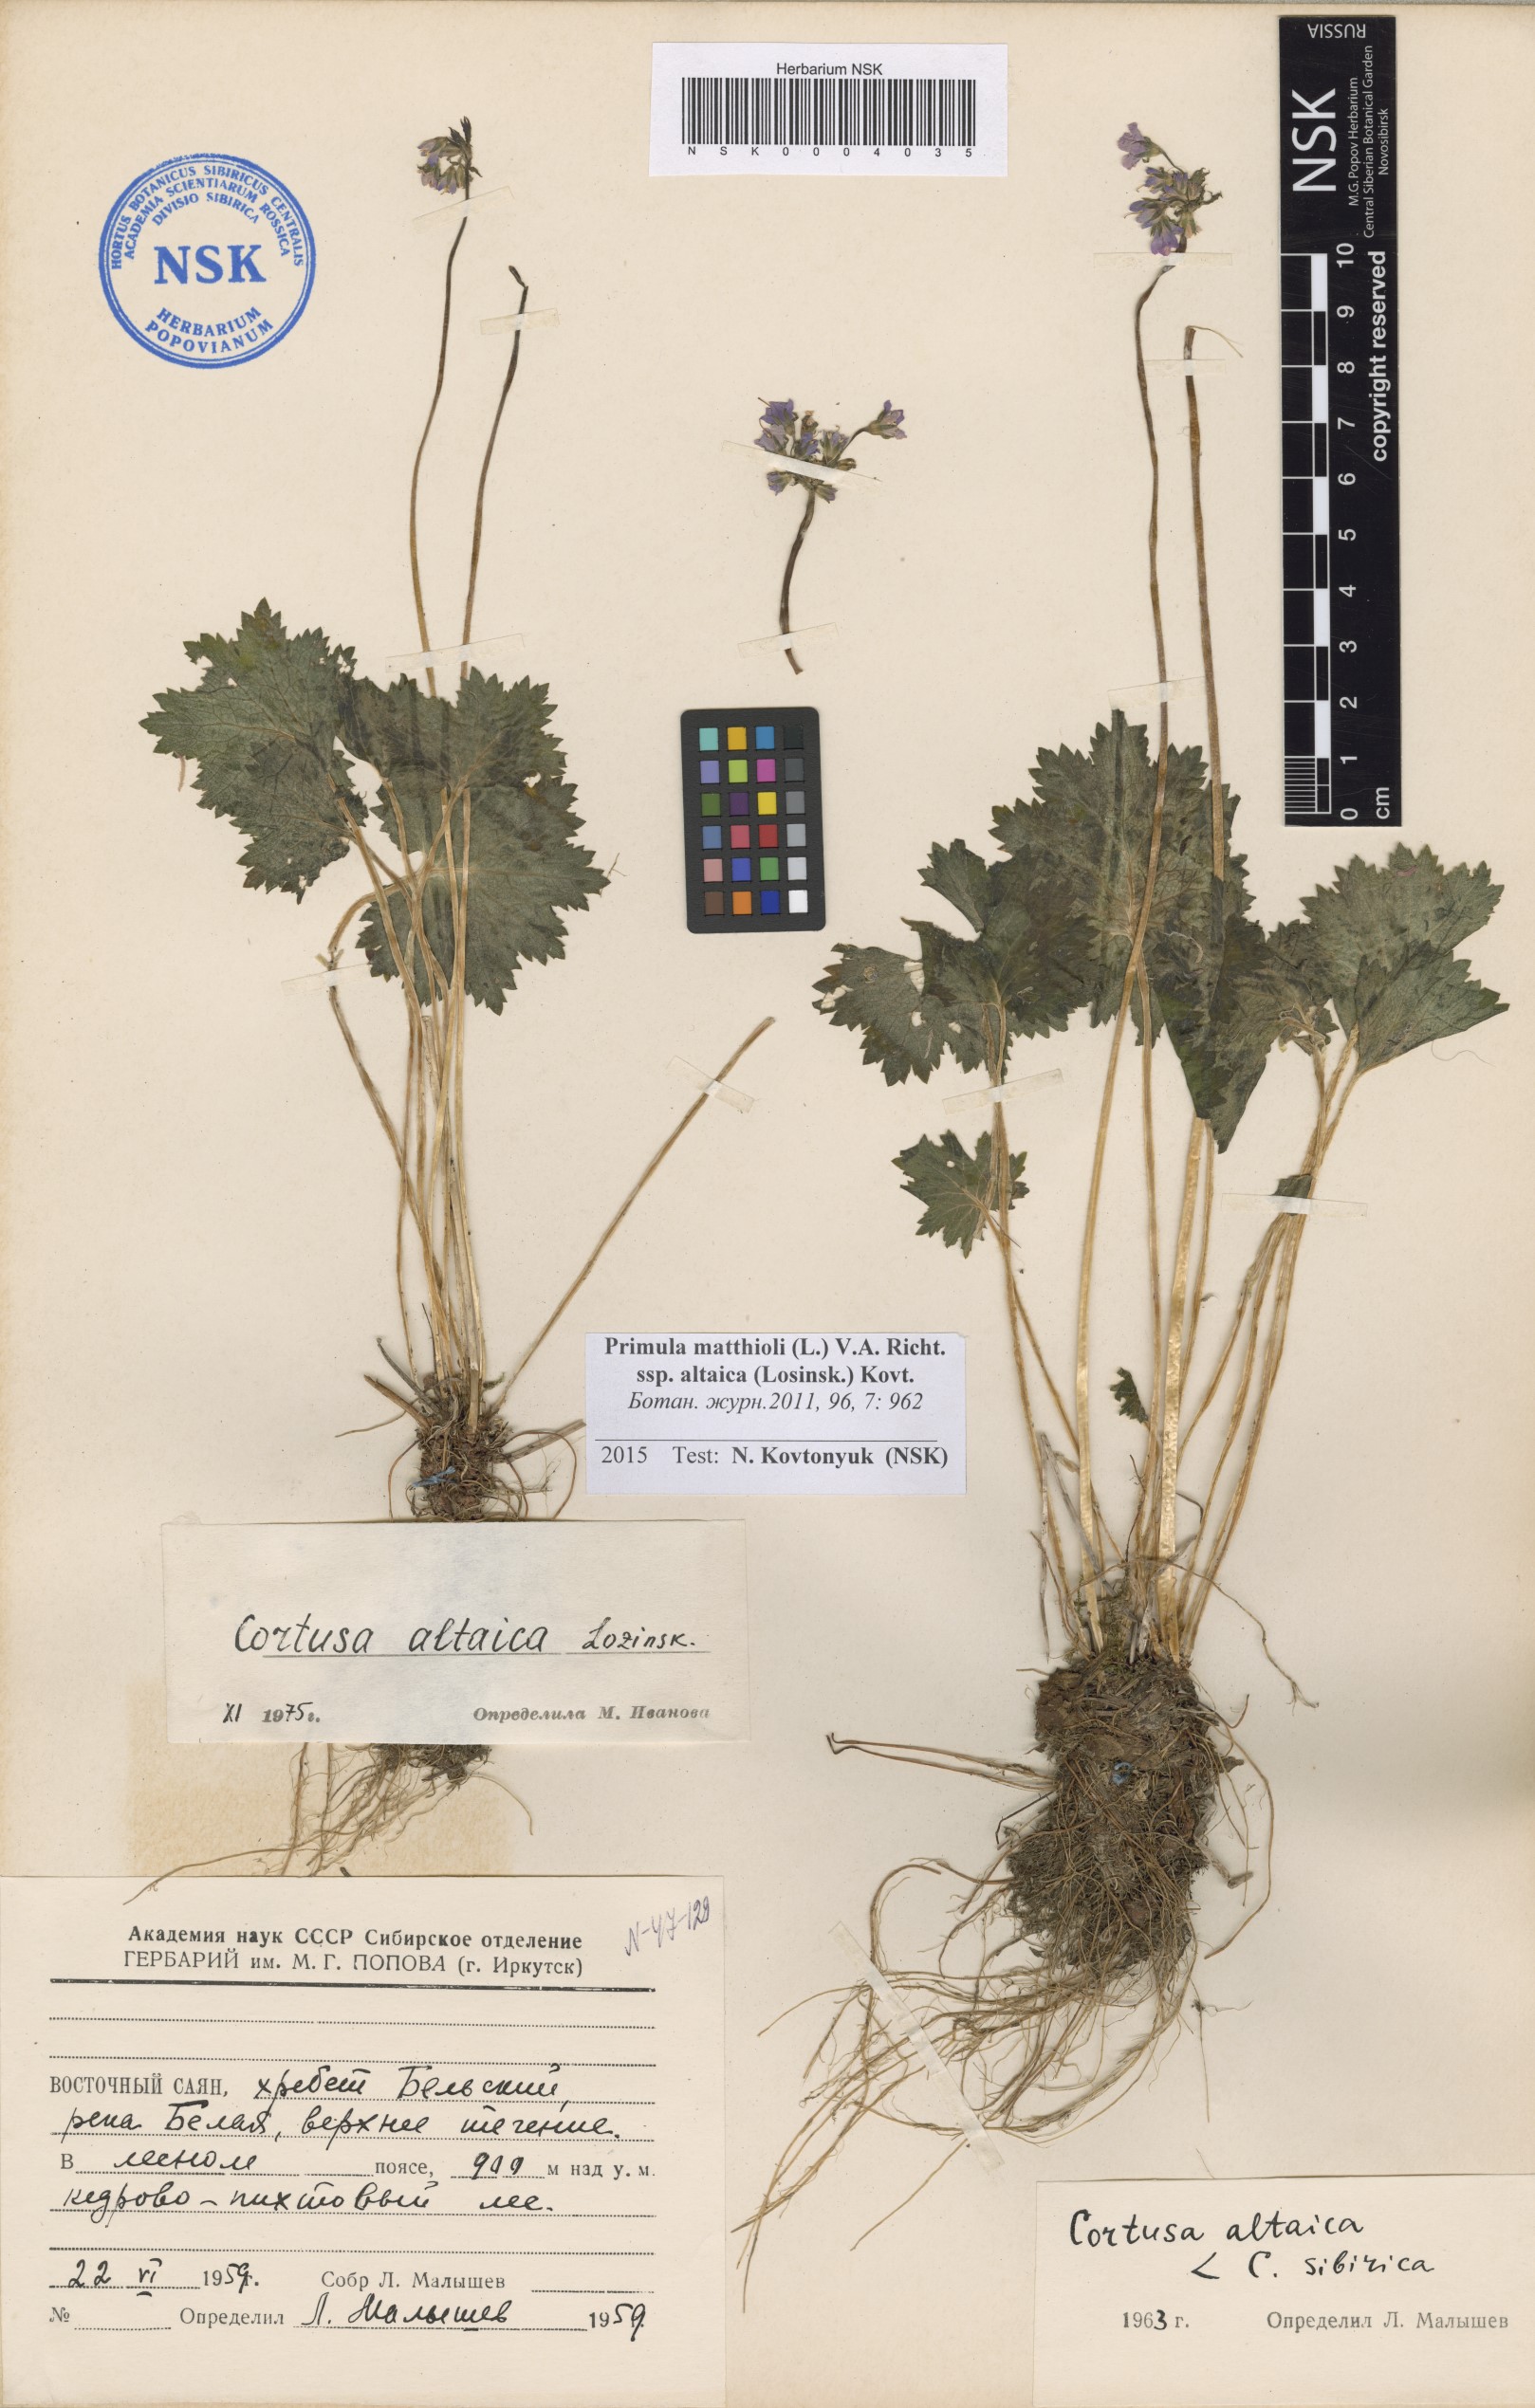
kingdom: Plantae
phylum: Tracheophyta
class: Magnoliopsida
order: Ericales
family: Primulaceae
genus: Primula
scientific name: Primula matthioli
